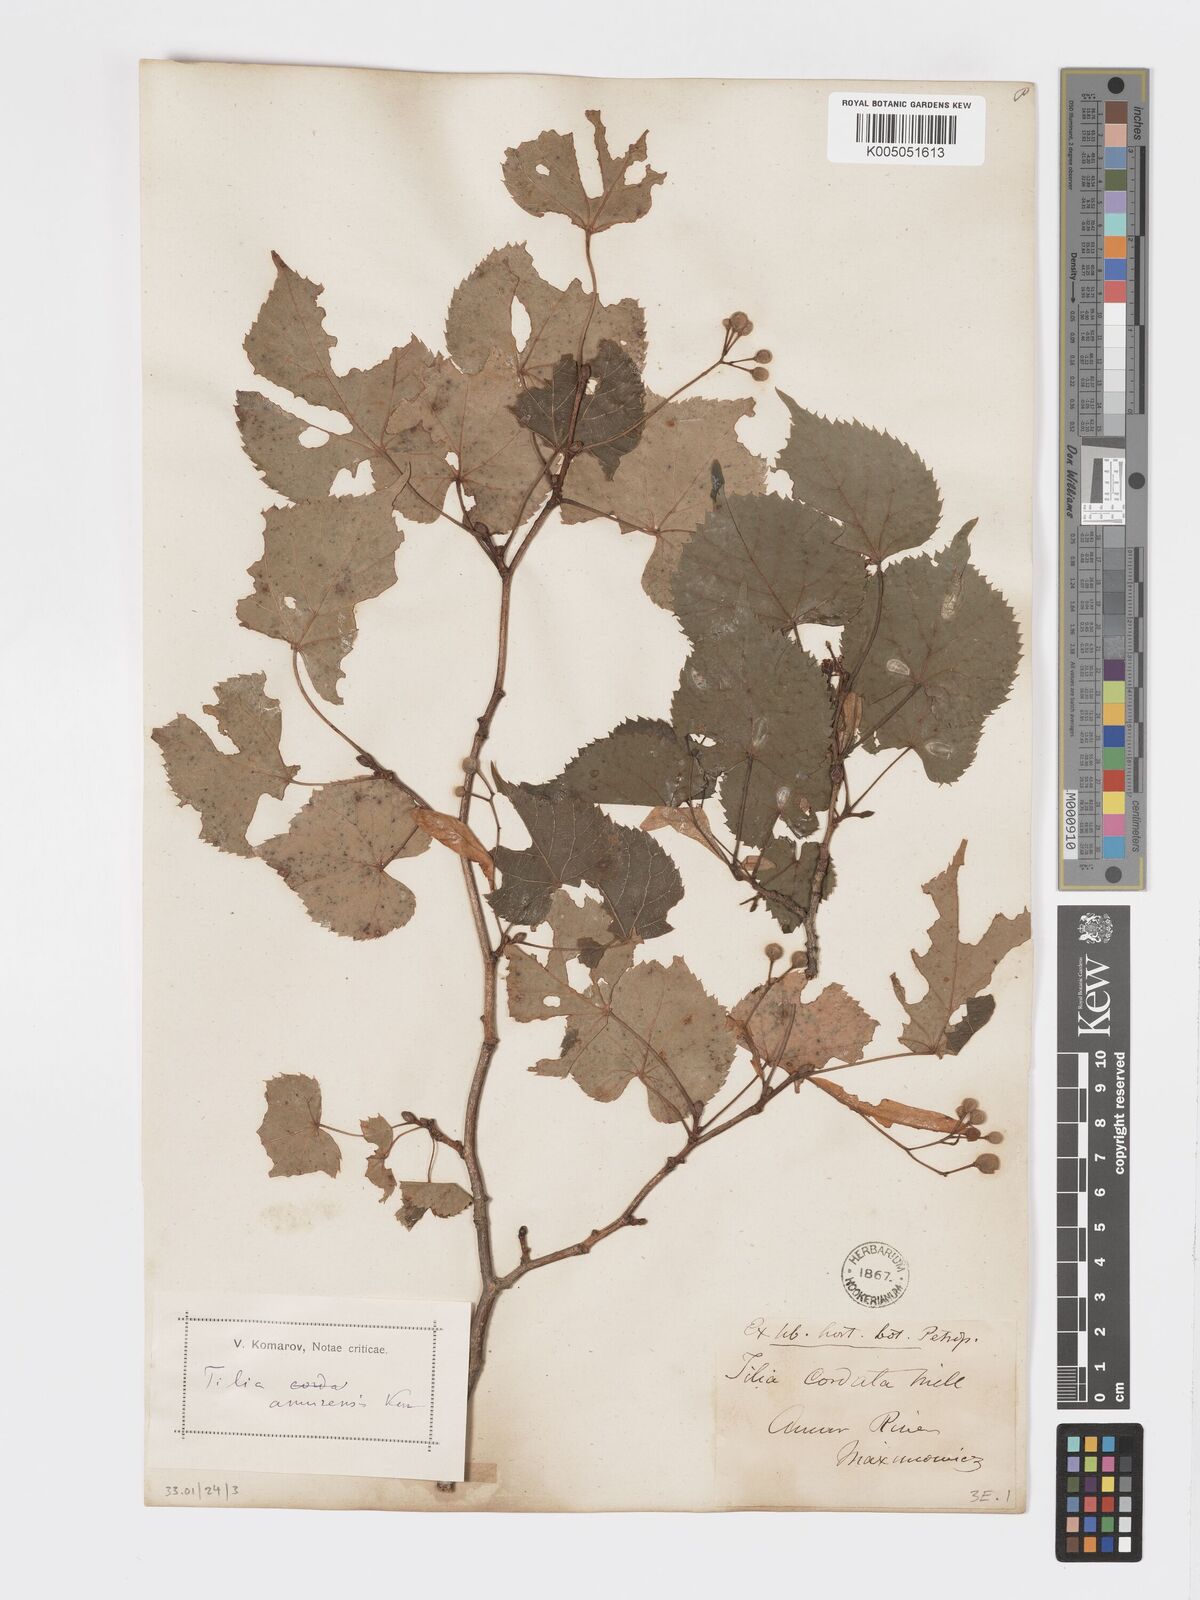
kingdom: Plantae
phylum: Tracheophyta
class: Magnoliopsida
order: Malvales
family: Malvaceae
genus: Tilia
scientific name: Tilia
